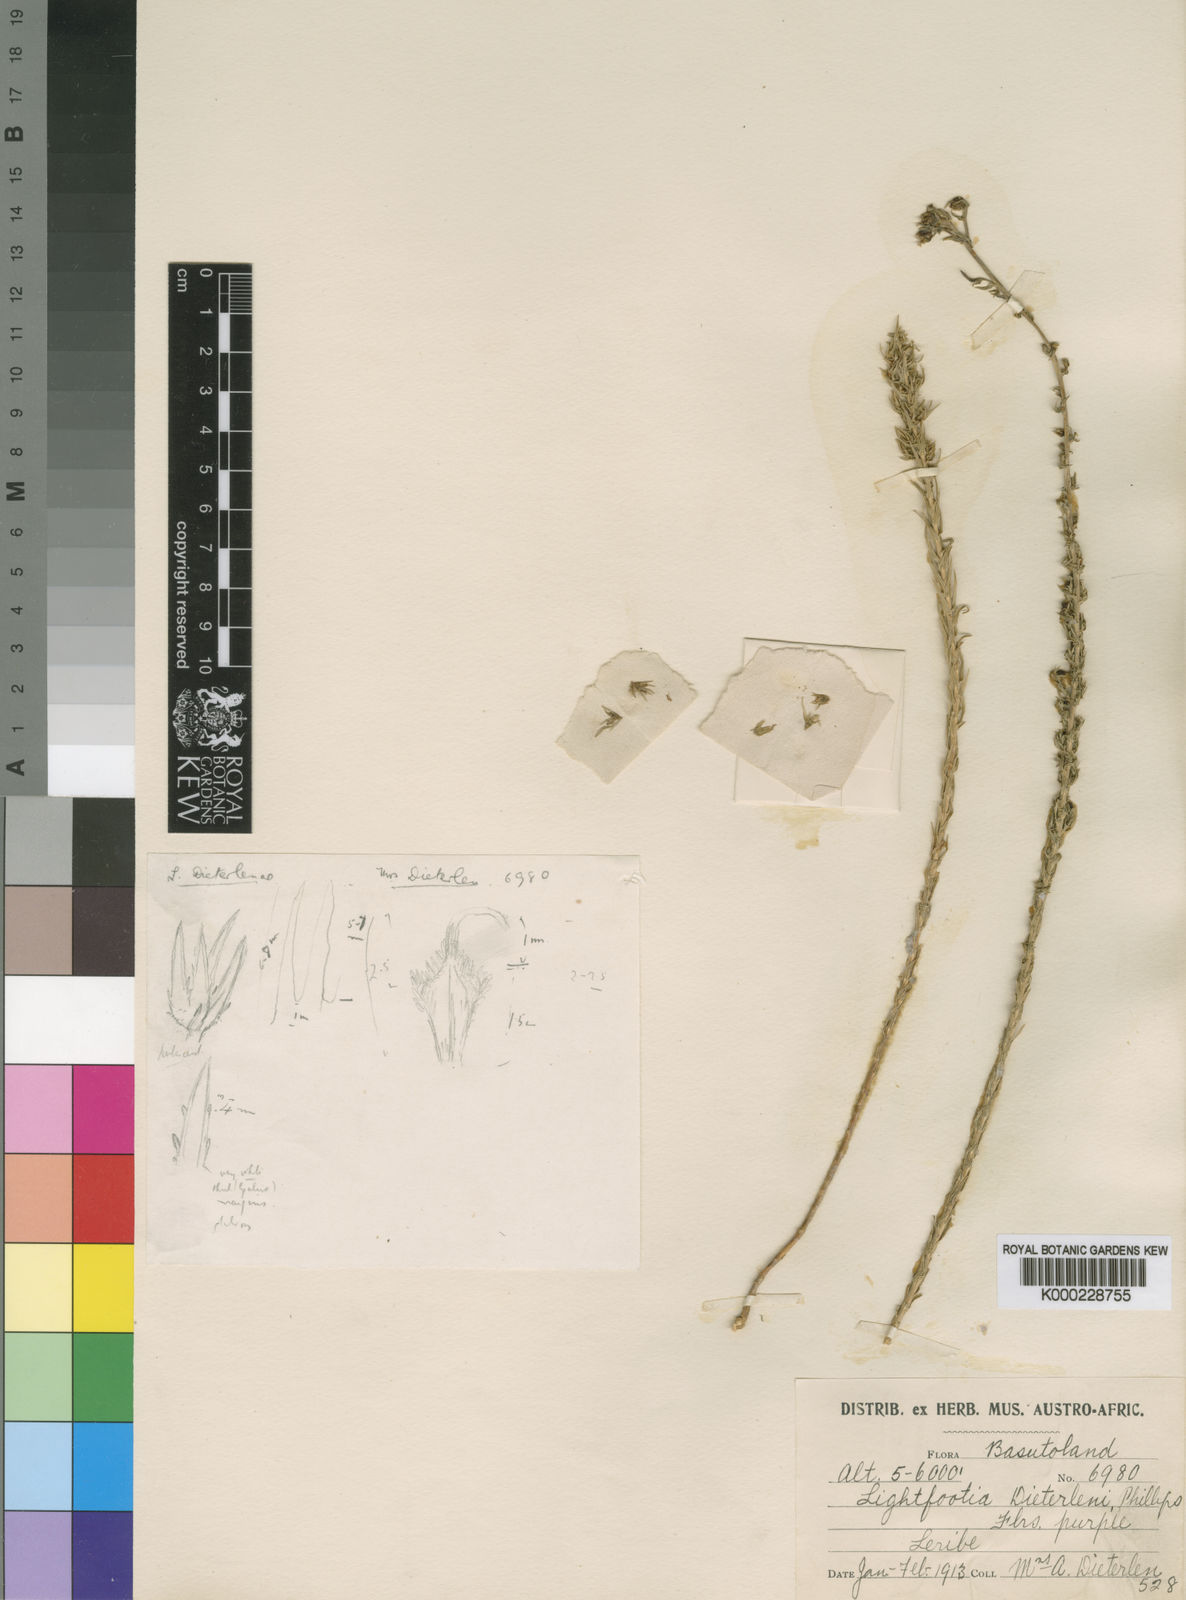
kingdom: Plantae
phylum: Tracheophyta
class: Magnoliopsida
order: Asterales
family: Campanulaceae
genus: Wahlenbergia
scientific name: Wahlenbergia dieterlenii
